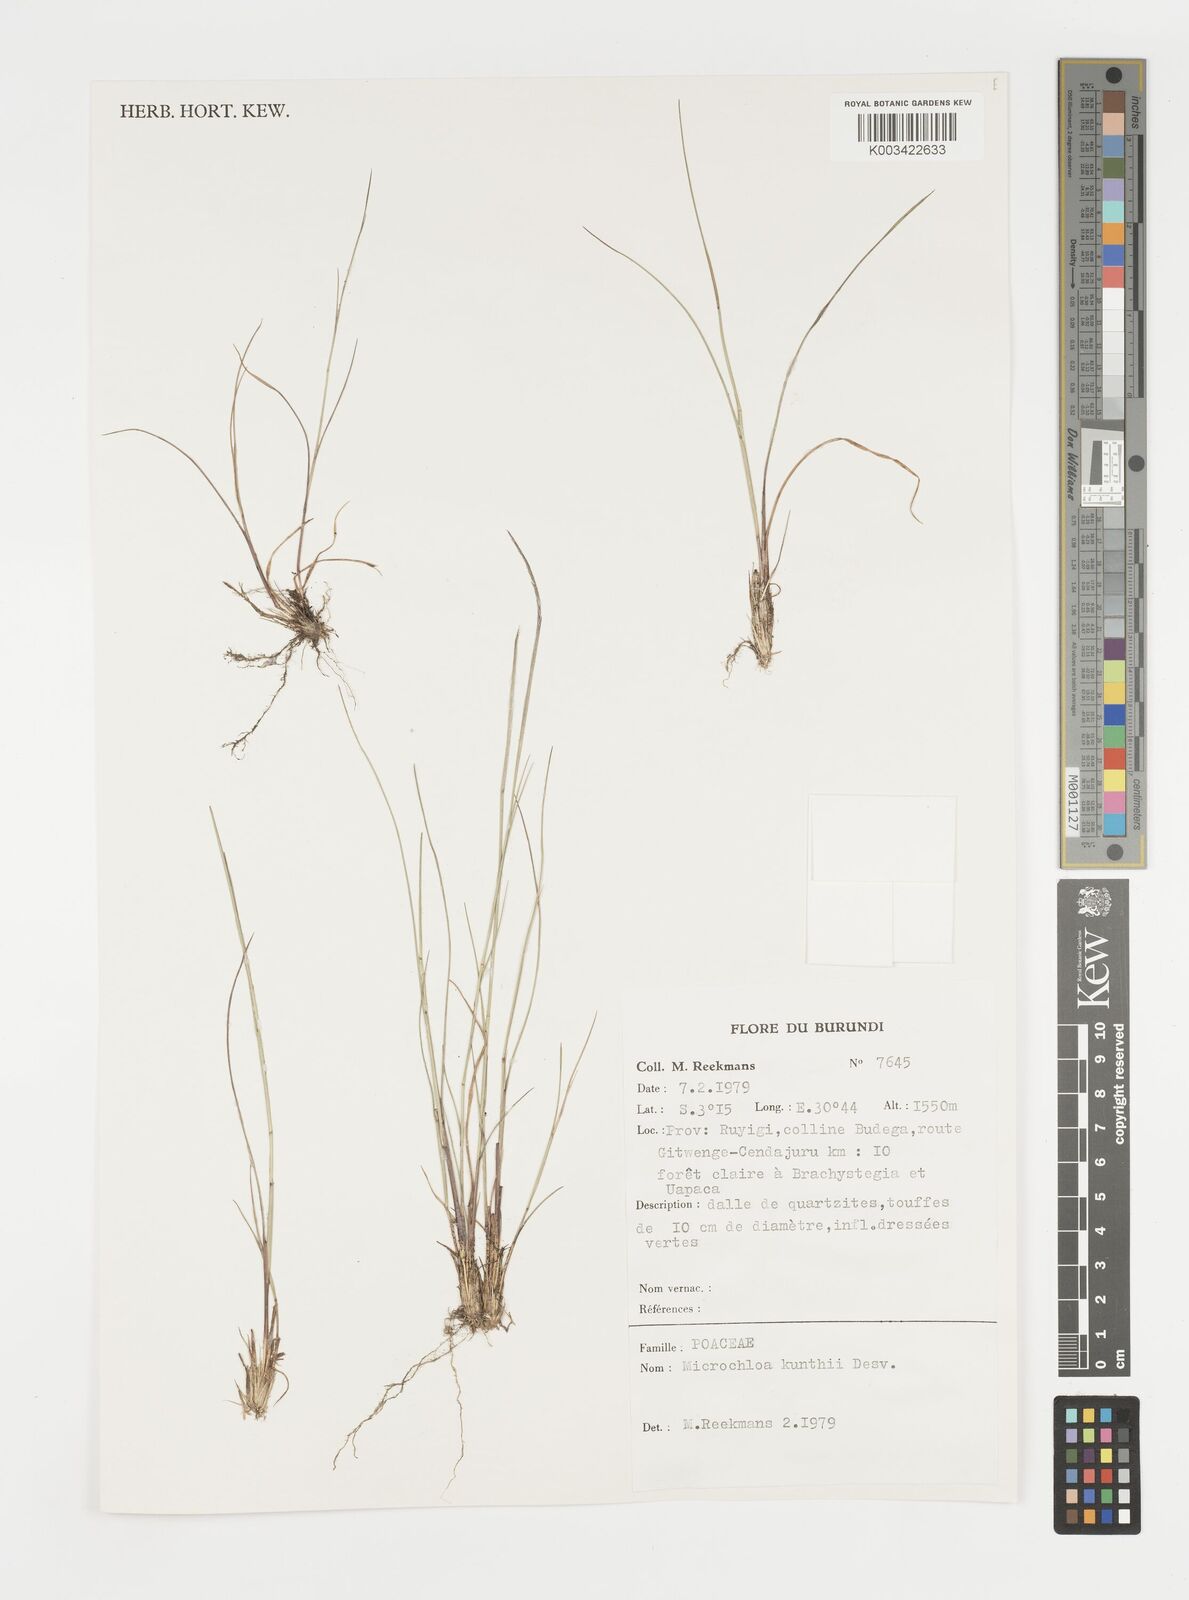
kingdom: Plantae
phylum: Tracheophyta
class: Liliopsida
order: Poales
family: Poaceae
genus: Microchloa
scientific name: Microchloa kunthii
